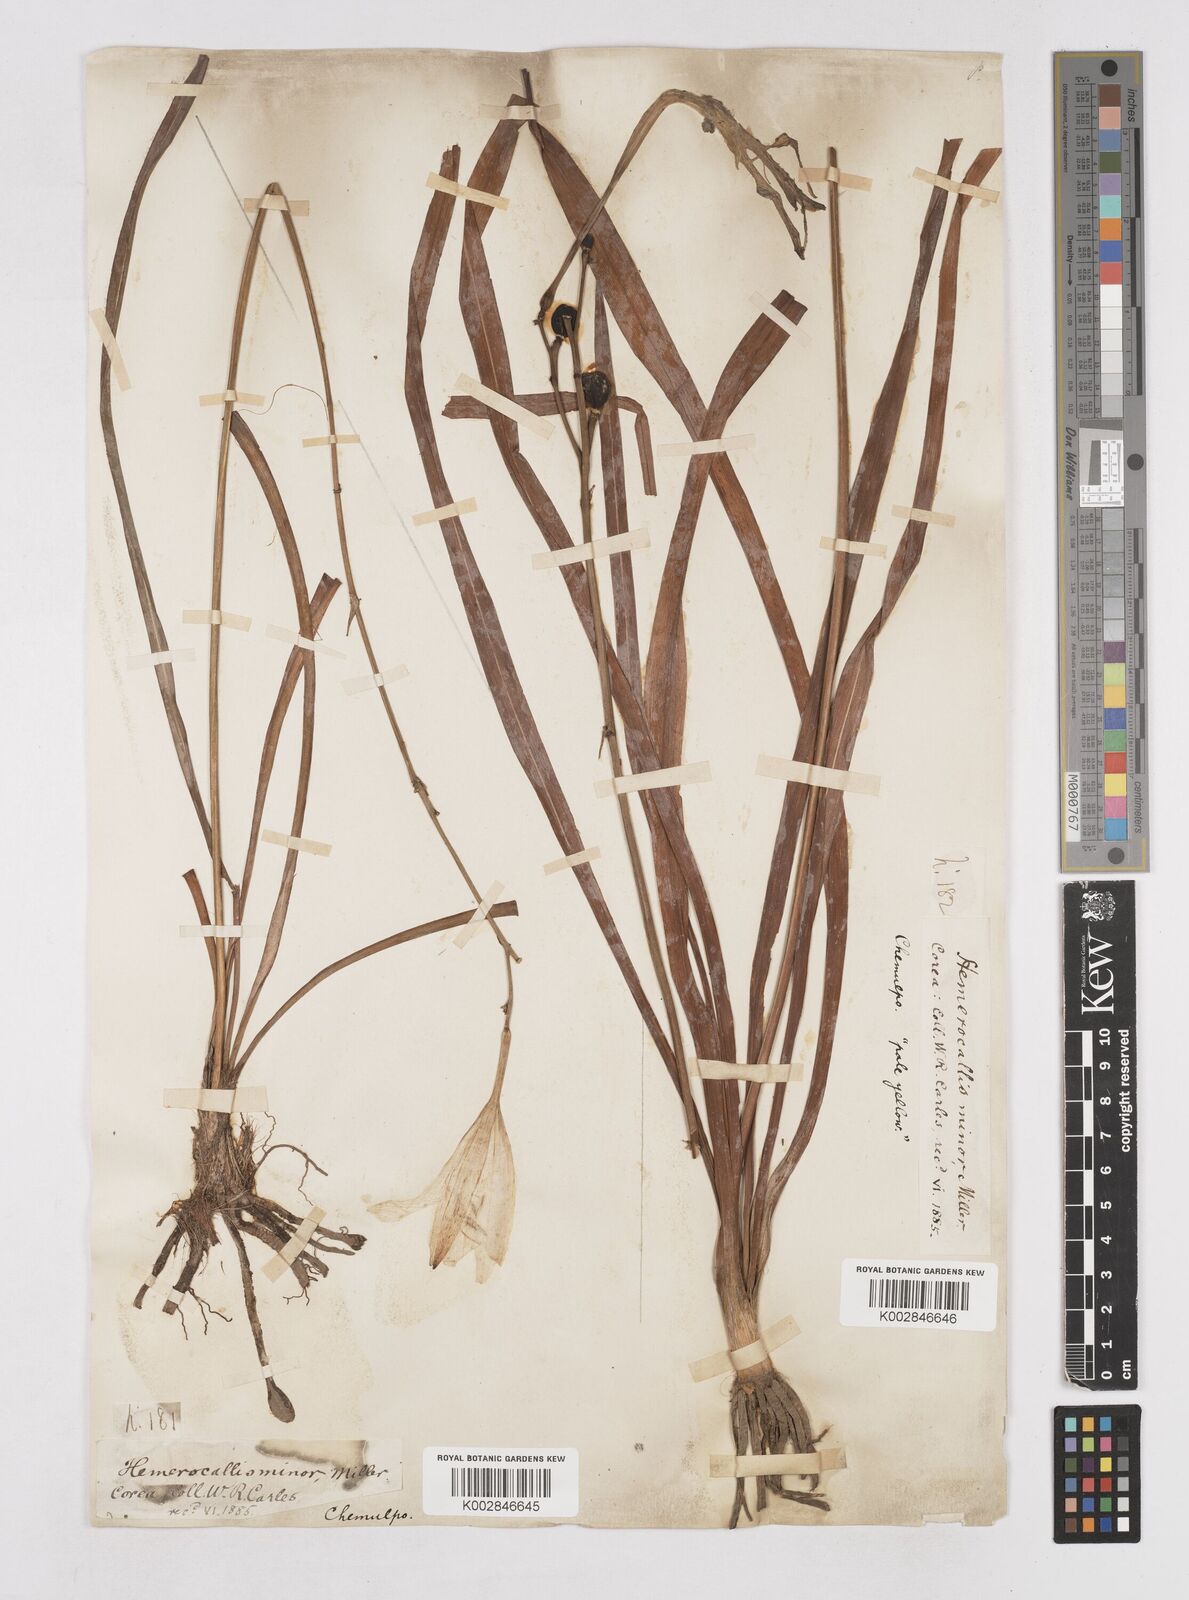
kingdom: Plantae
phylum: Tracheophyta
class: Liliopsida
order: Asparagales
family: Asphodelaceae
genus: Hemerocallis
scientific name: Hemerocallis minor
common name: Small daylily
